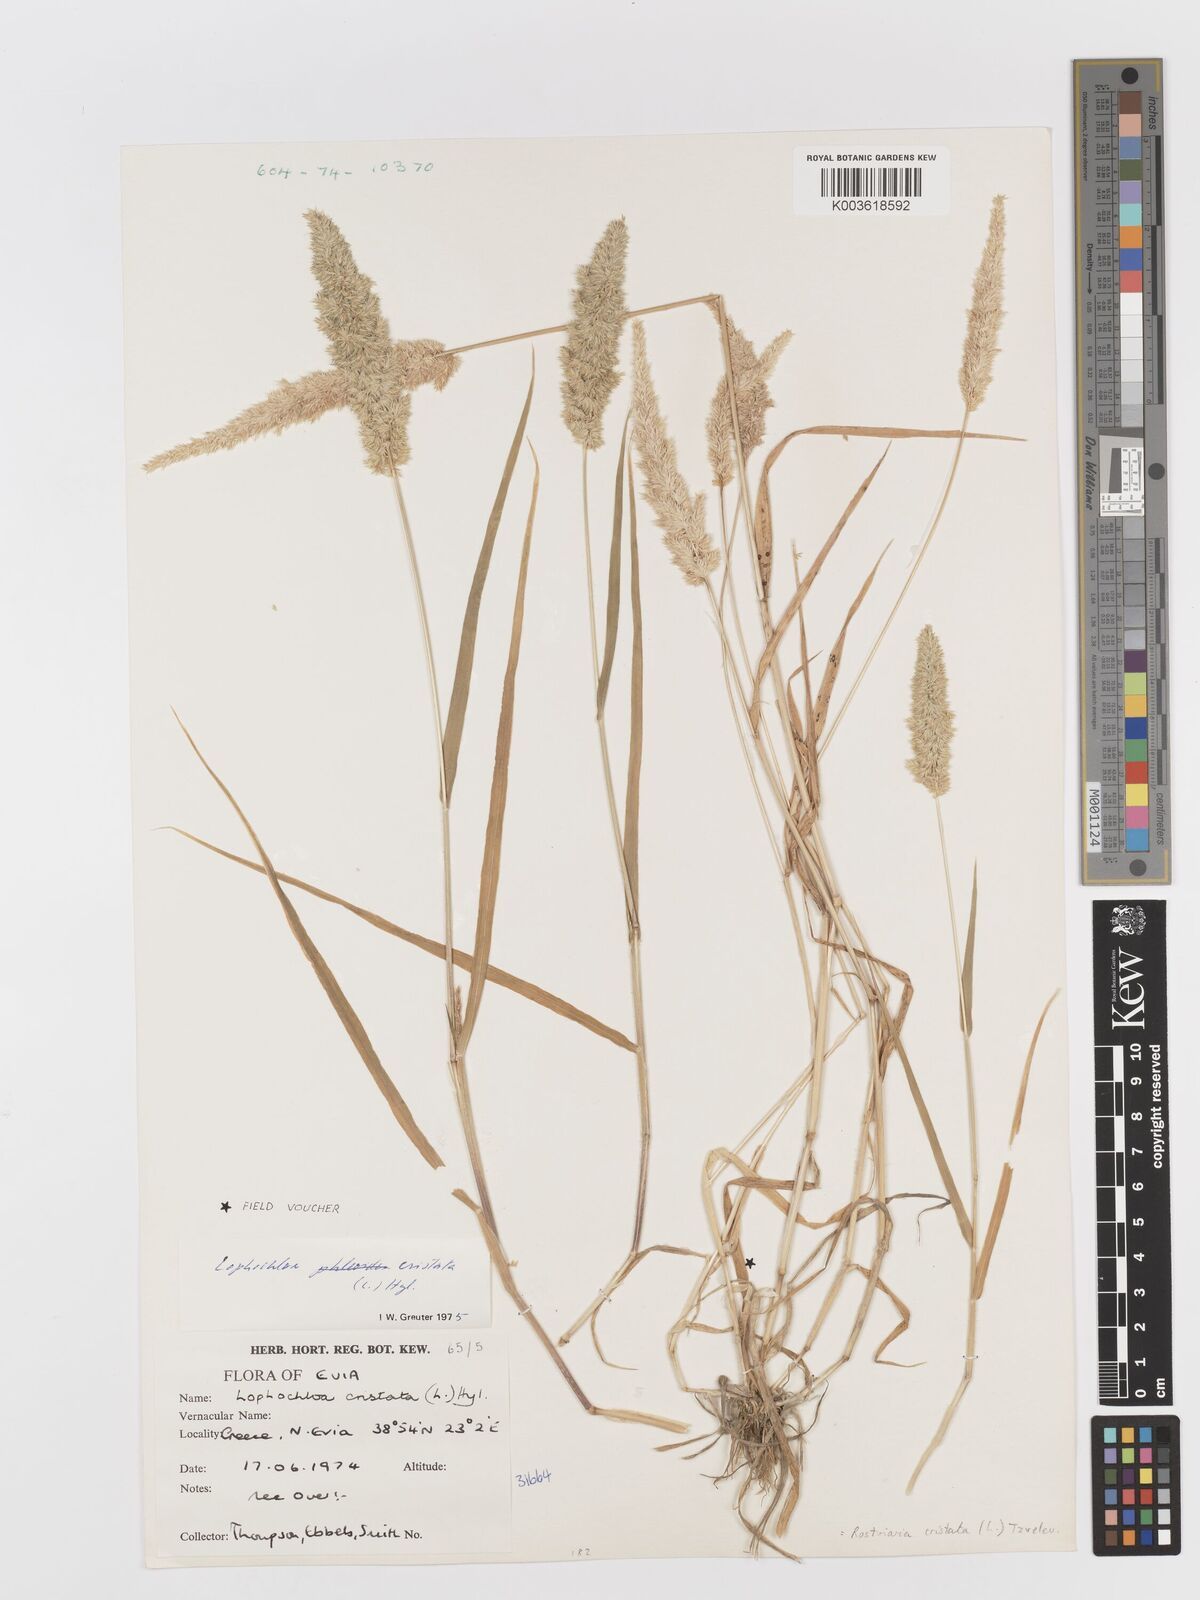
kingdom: Plantae
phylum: Tracheophyta
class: Liliopsida
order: Poales
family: Poaceae
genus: Rostraria
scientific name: Rostraria cristata
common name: Mediterranean hair-grass
